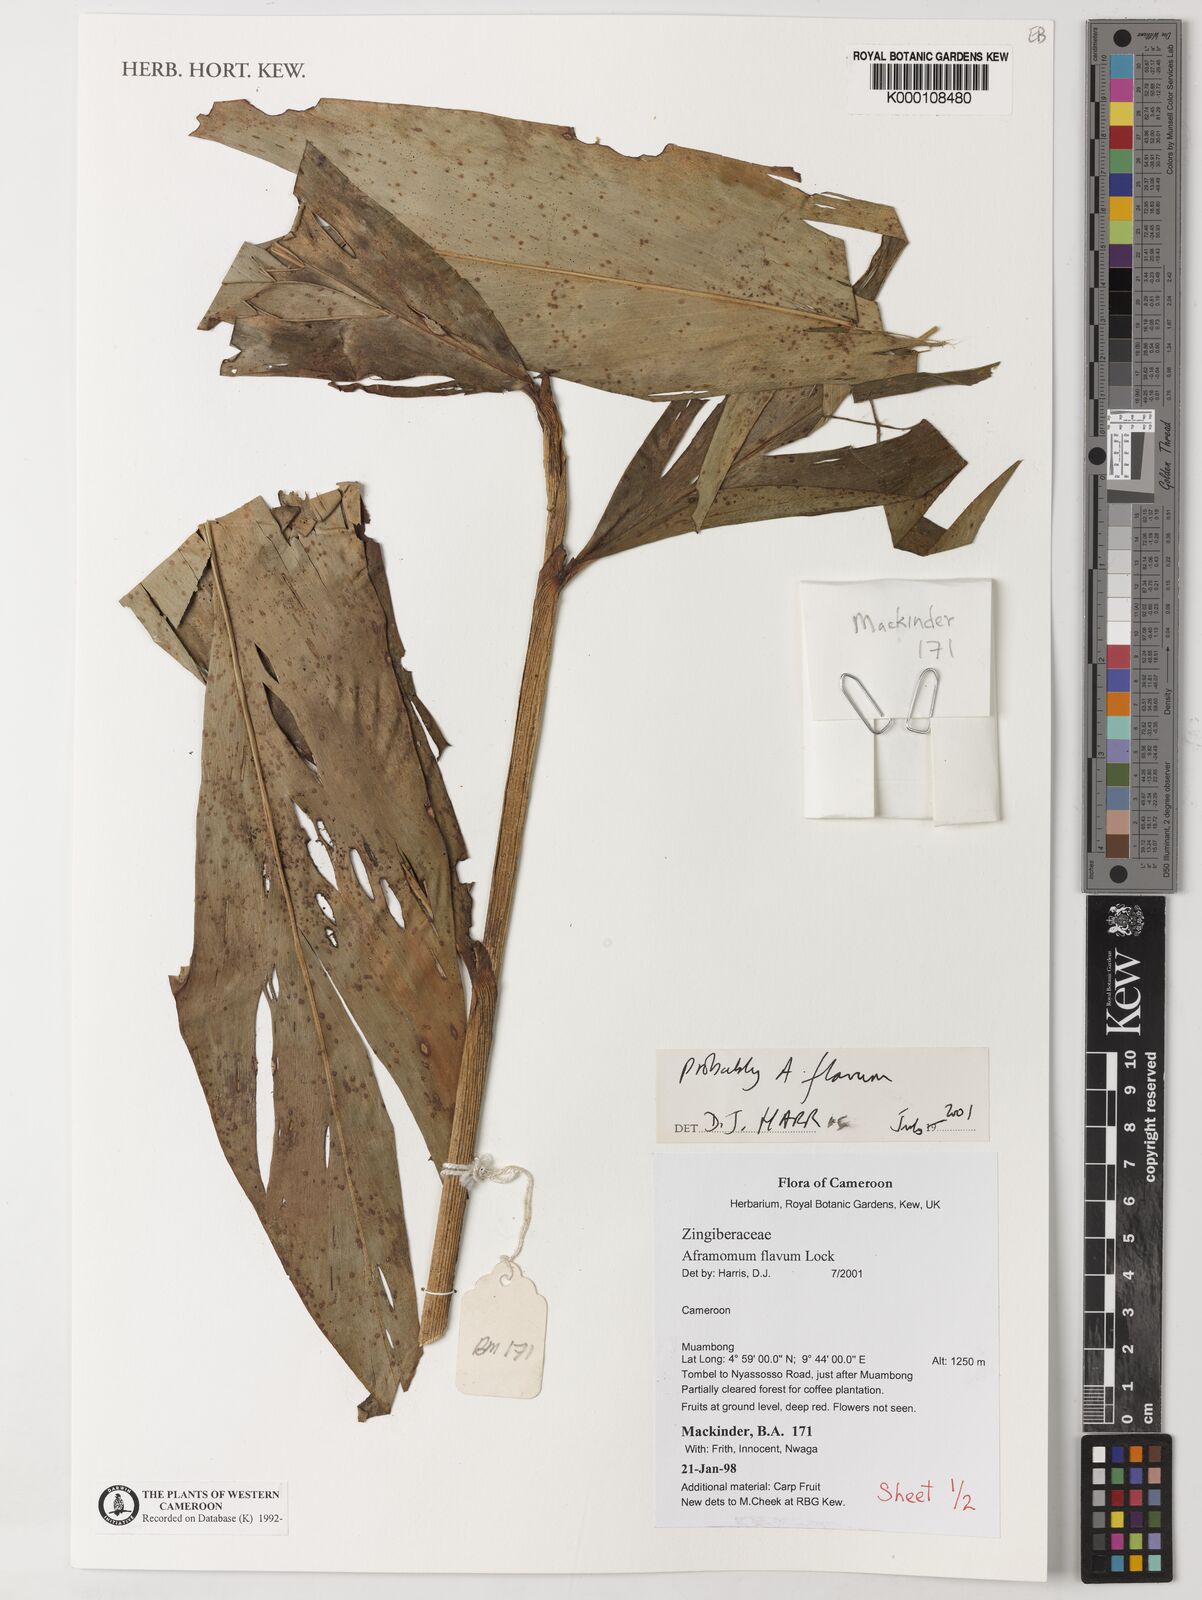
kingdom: Plantae
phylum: Tracheophyta
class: Liliopsida
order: Zingiberales
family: Zingiberaceae
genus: Aframomum
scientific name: Aframomum daniellii
